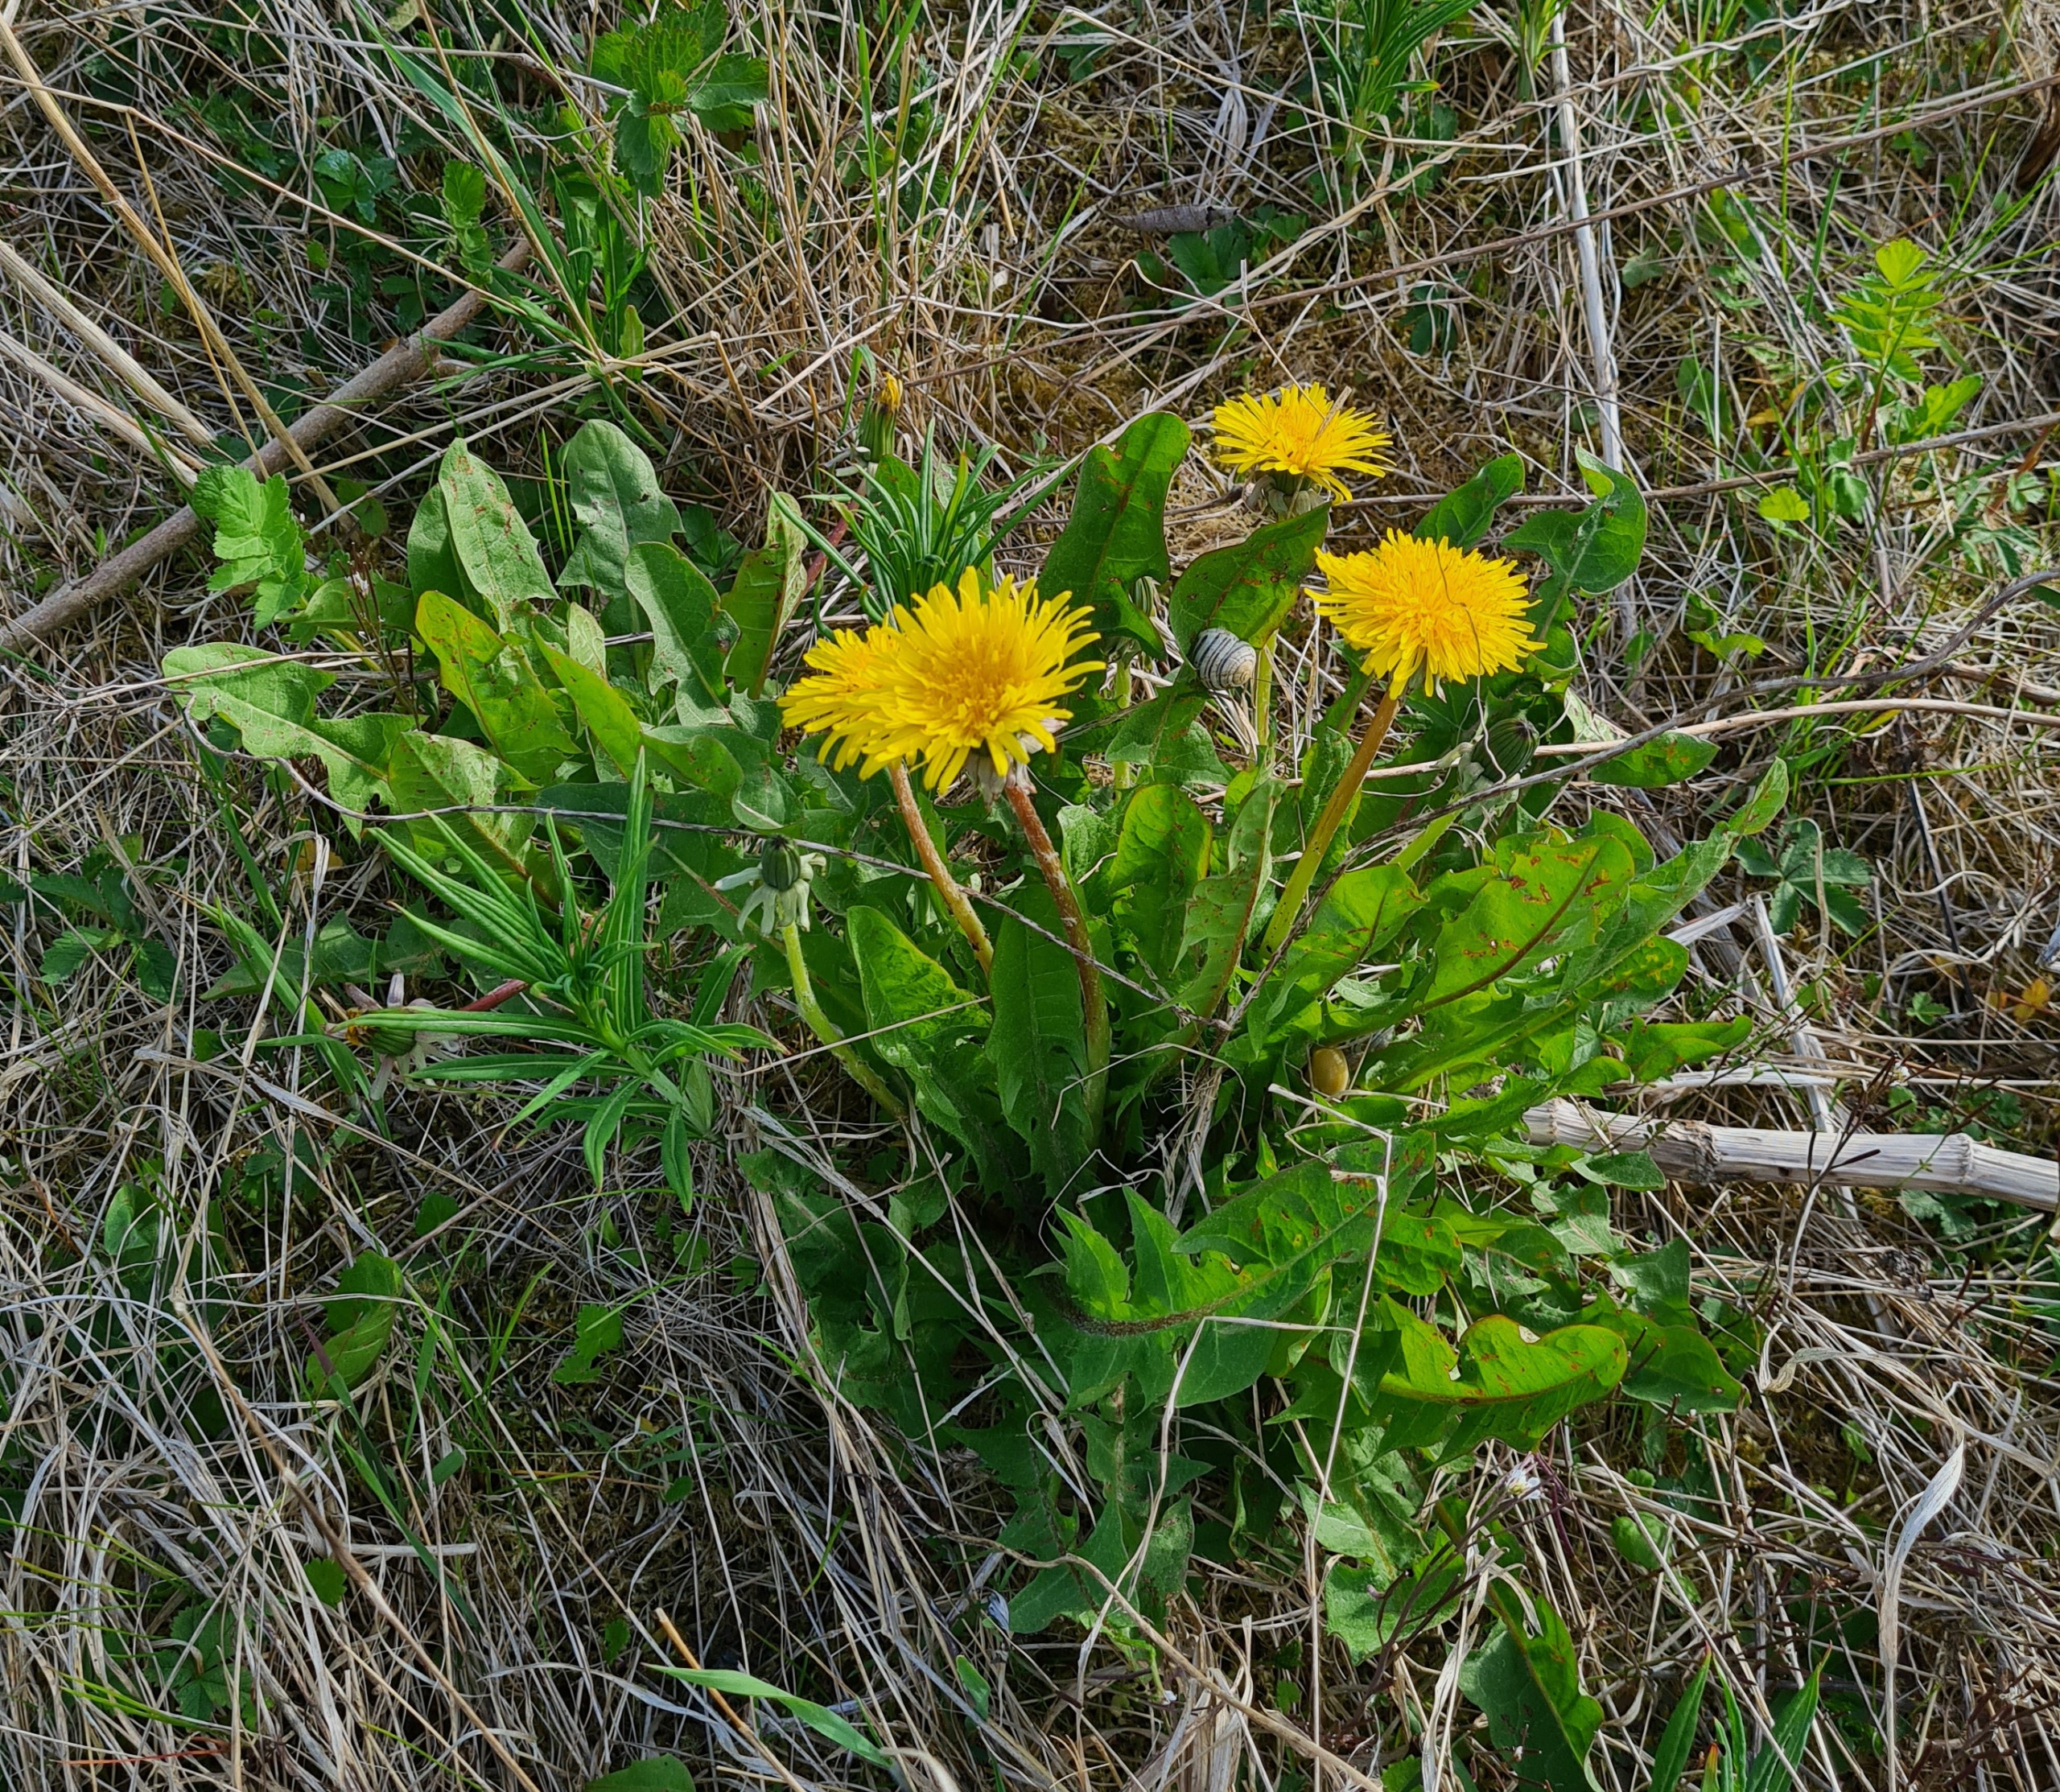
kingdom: Plantae
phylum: Tracheophyta
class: Magnoliopsida
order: Asterales
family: Asteraceae
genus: Taraxacum
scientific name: Taraxacum
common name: Mælkebøtteslægten
